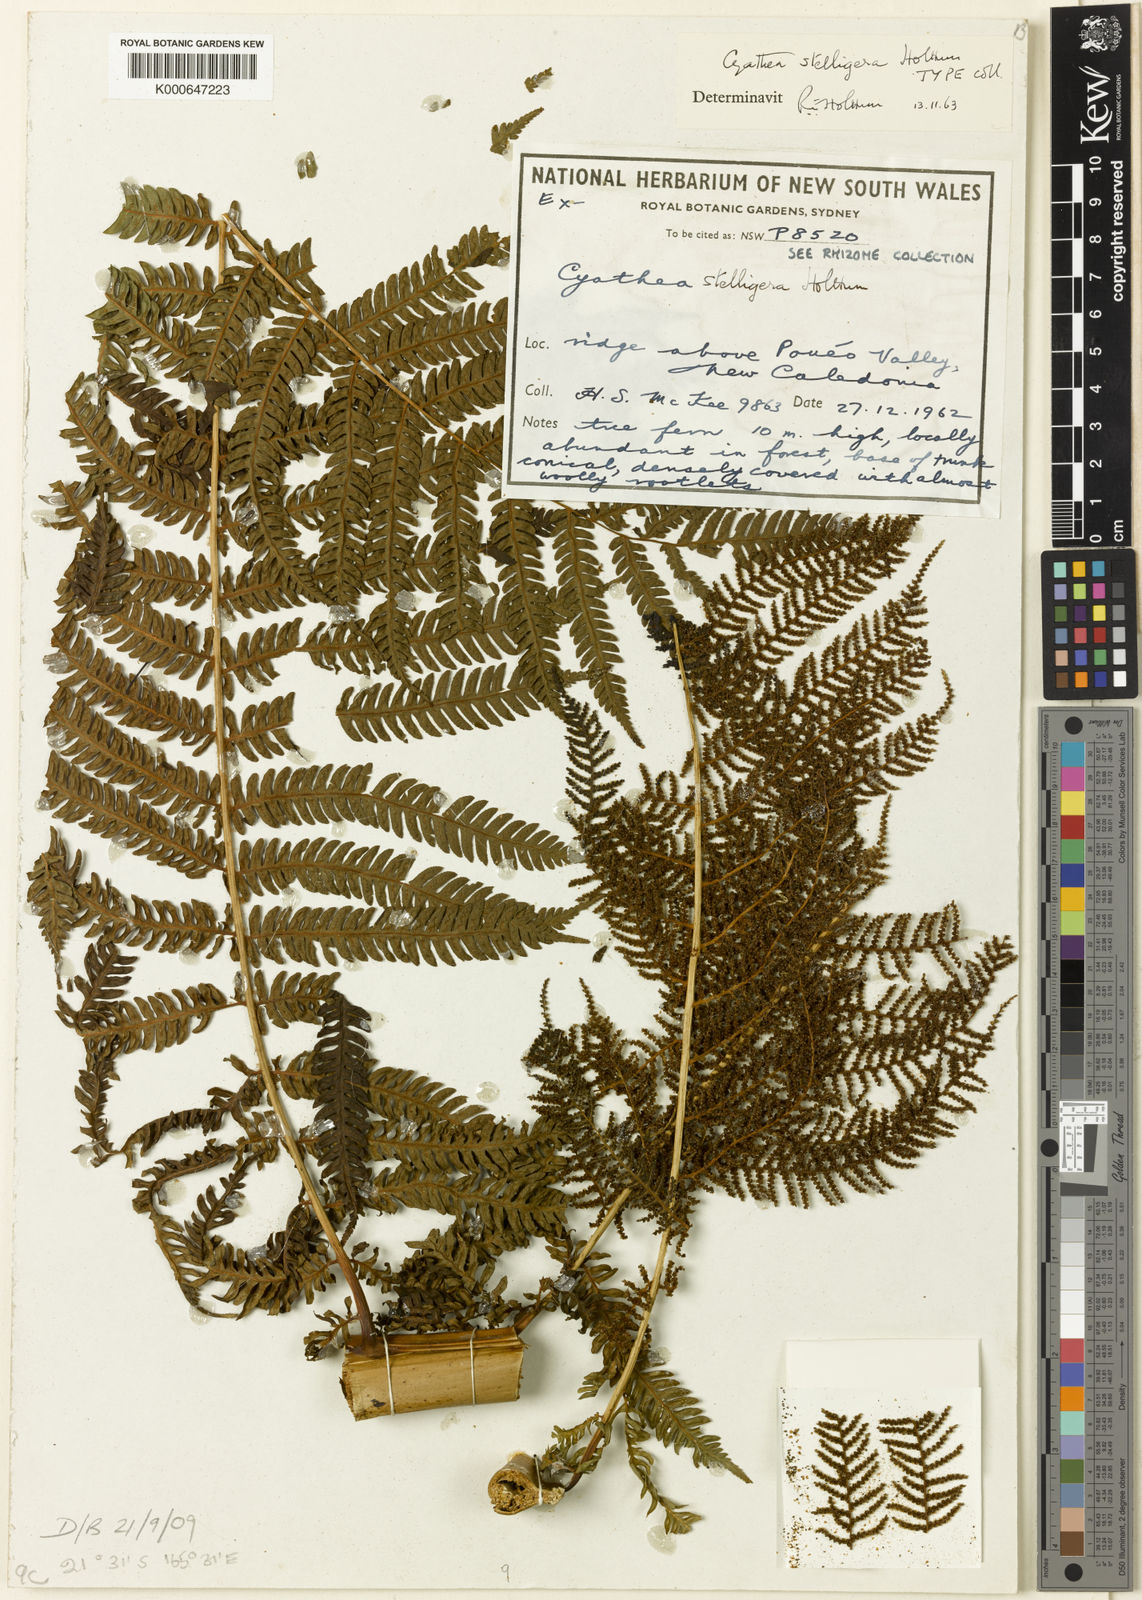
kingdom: Plantae
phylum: Tracheophyta
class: Polypodiopsida
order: Cyatheales
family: Cyatheaceae
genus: Alsophila
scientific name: Alsophila stelligera
